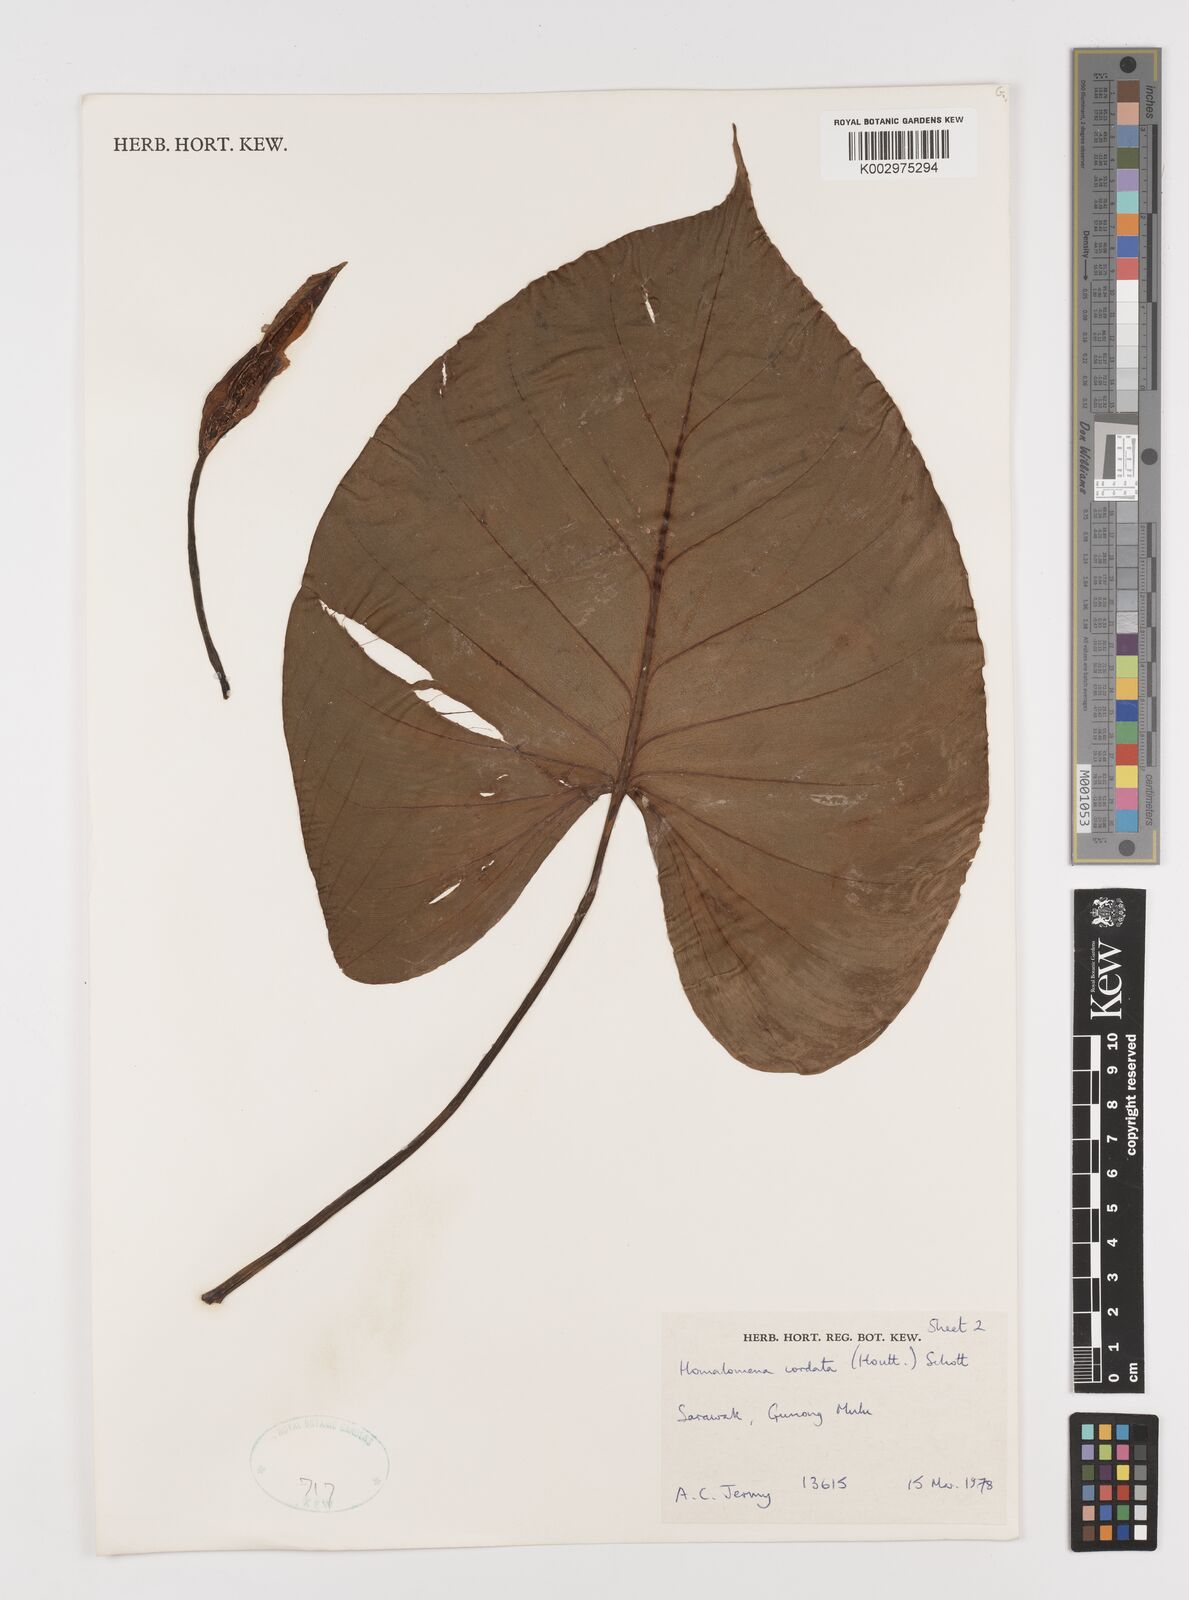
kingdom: Plantae
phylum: Tracheophyta
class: Liliopsida
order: Alismatales
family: Araceae
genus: Homalomena
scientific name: Homalomena cordata
